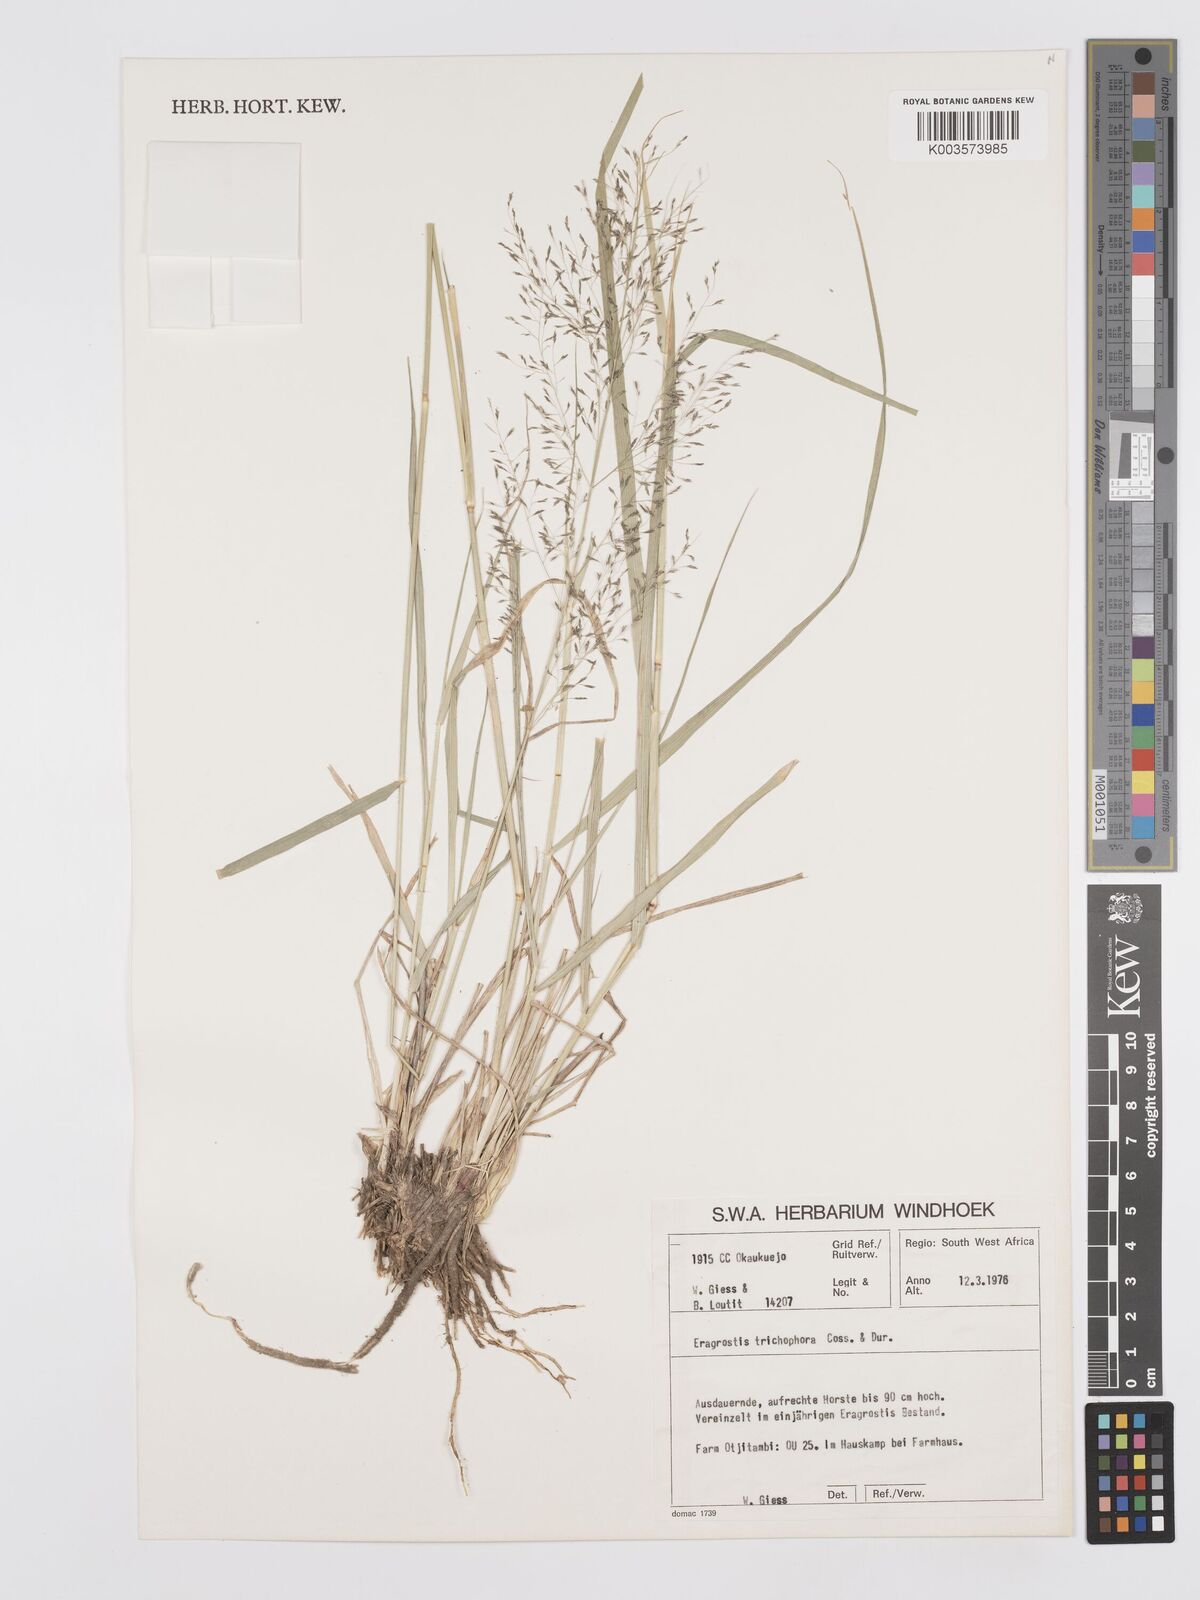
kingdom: Plantae
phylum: Tracheophyta
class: Liliopsida
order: Poales
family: Poaceae
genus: Eragrostis
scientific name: Eragrostis cylindriflora
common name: Cylinderflower lovegrass
